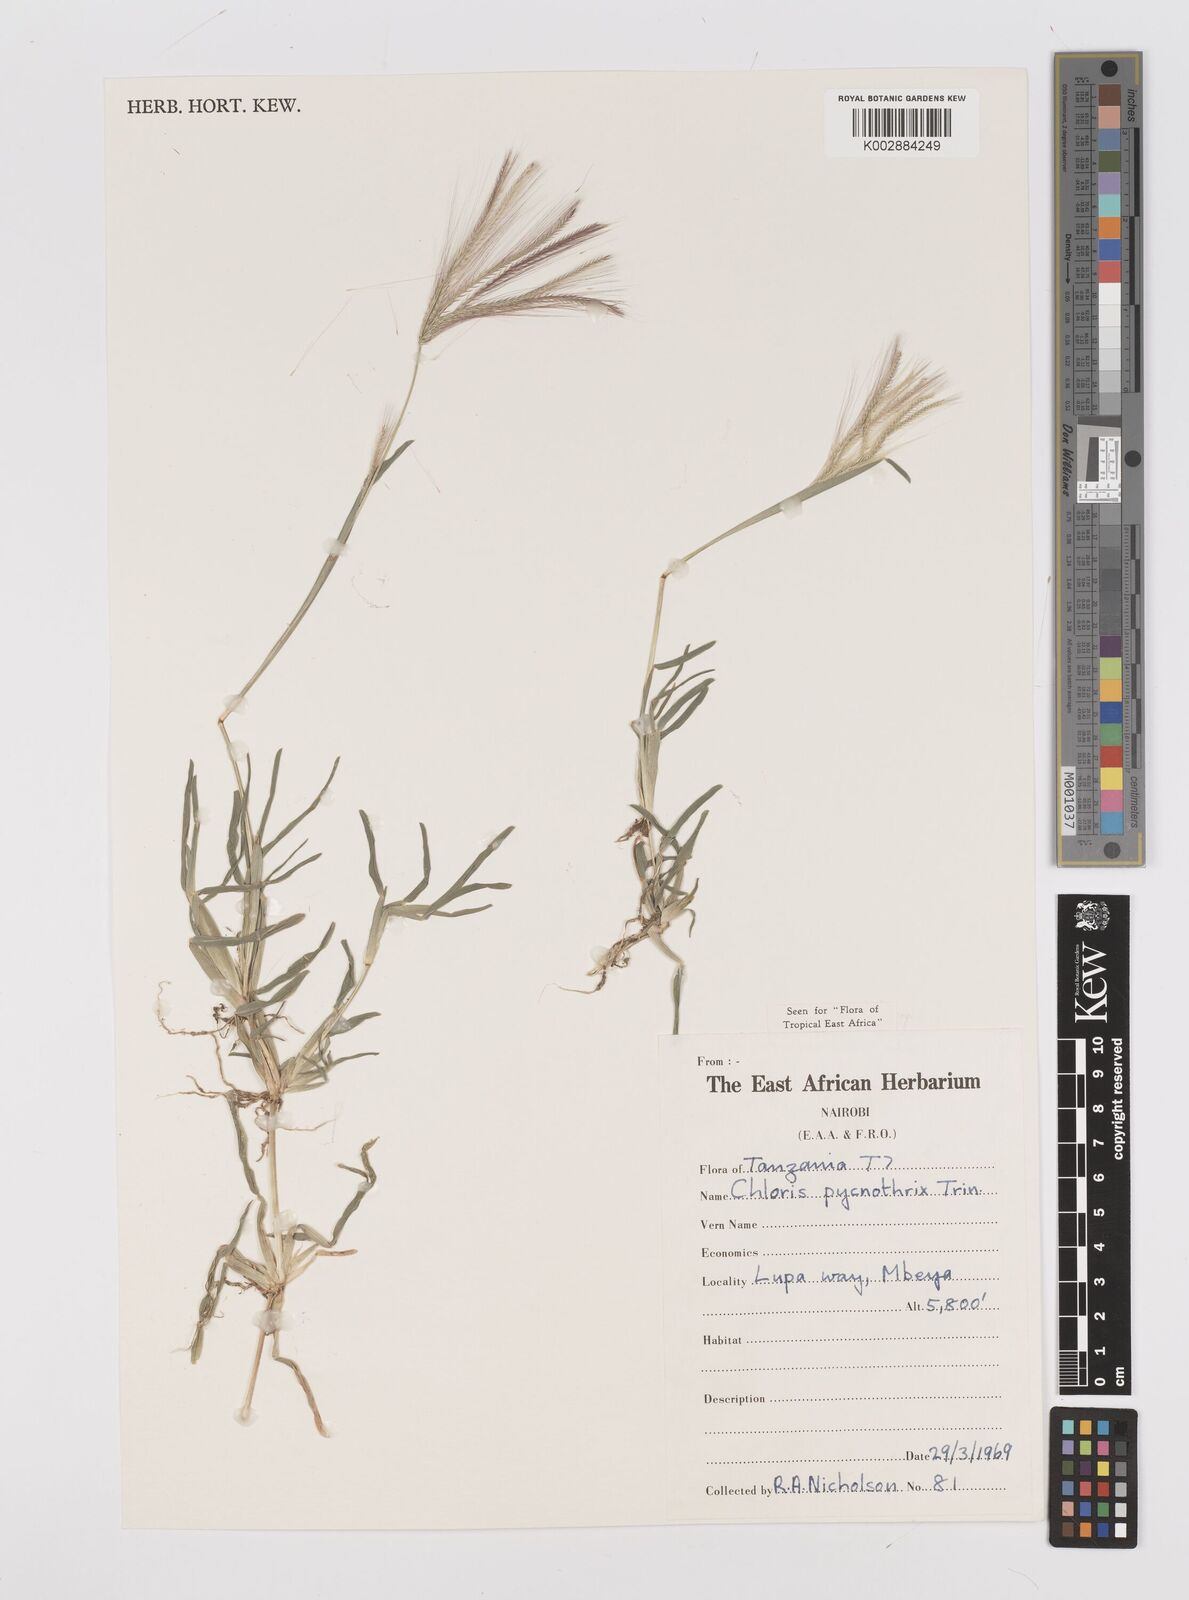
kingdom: Plantae
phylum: Tracheophyta
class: Liliopsida
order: Poales
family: Poaceae
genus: Chloris
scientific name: Chloris pycnothrix
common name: Spiderweb chloris
